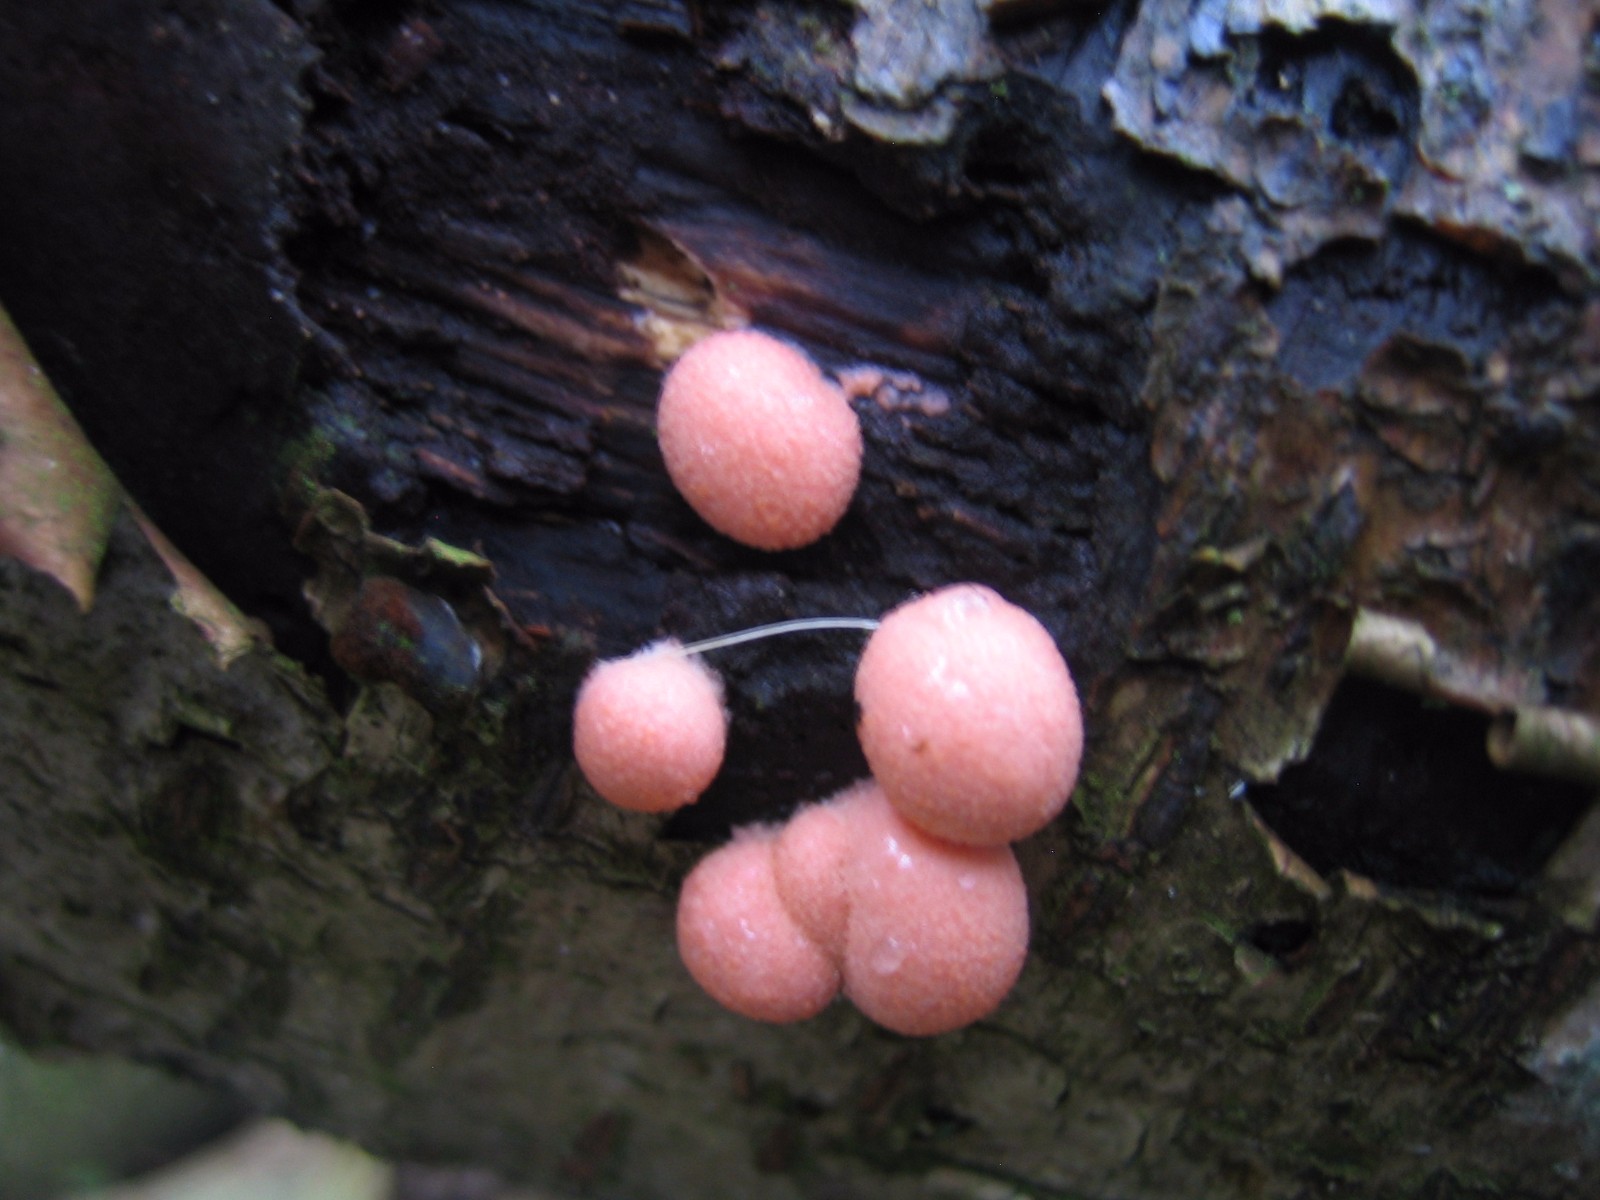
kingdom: Protozoa
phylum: Mycetozoa
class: Myxomycetes
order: Cribrariales
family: Tubiferaceae
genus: Lycogala
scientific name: Lycogala epidendrum
